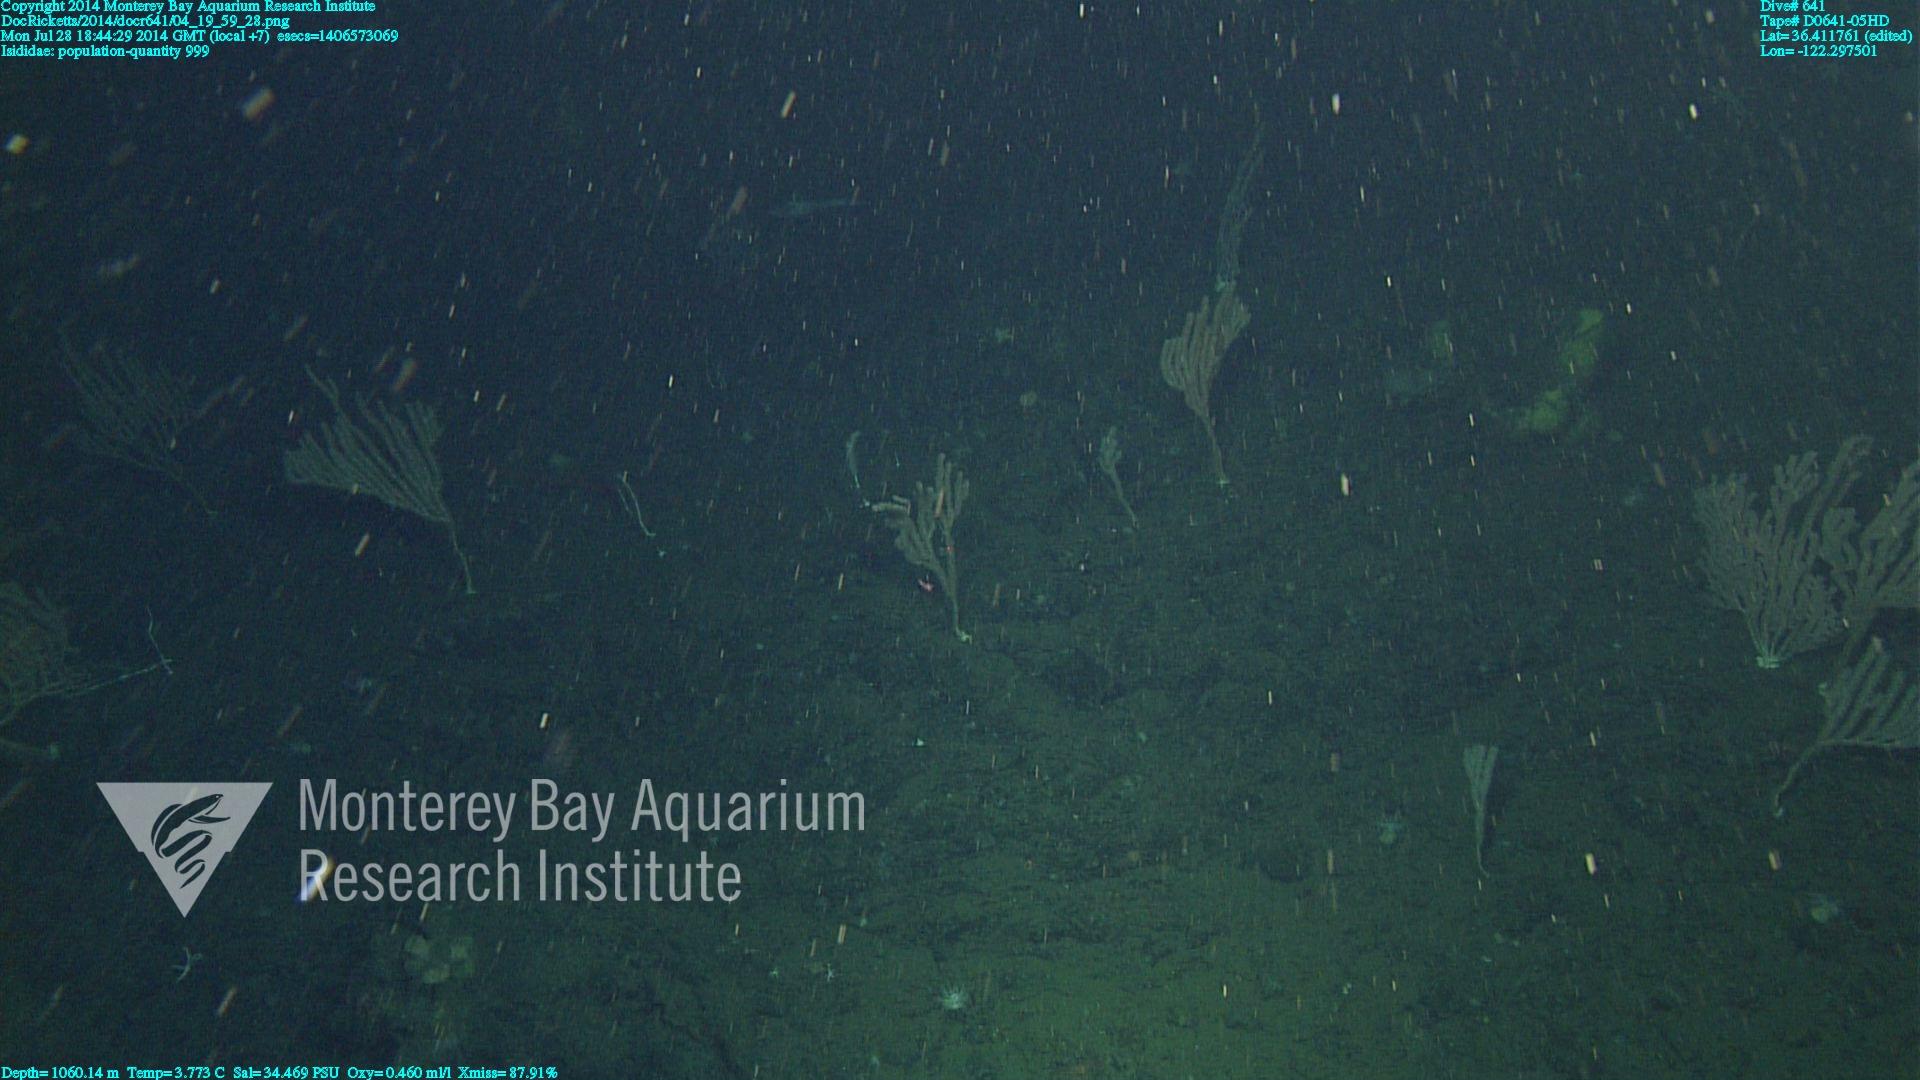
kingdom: Animalia
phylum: Cnidaria
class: Anthozoa
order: Scleralcyonacea
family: Keratoisididae
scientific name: Keratoisididae
